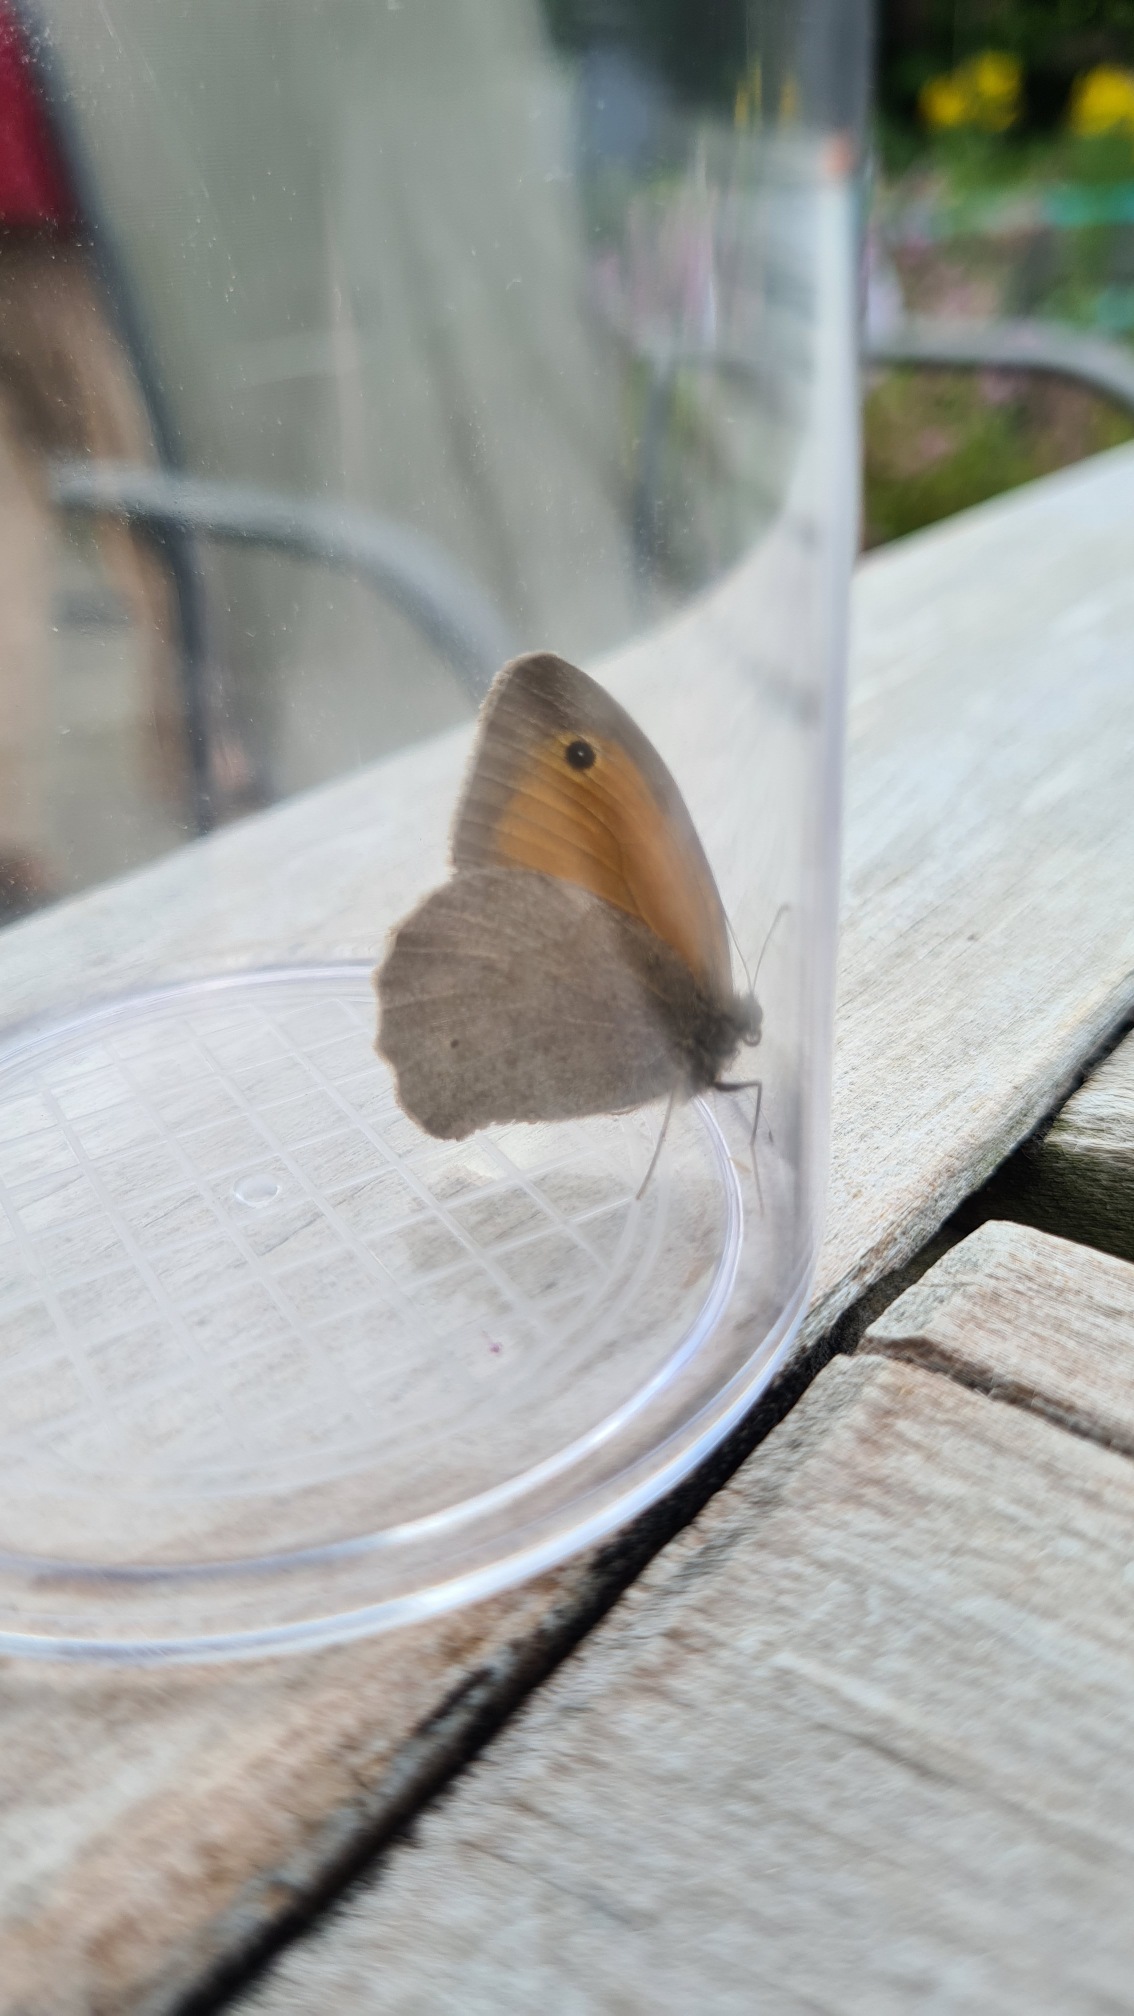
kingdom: Animalia
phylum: Arthropoda
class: Insecta
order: Lepidoptera
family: Nymphalidae
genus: Maniola
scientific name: Maniola jurtina
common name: Græsrandøje
